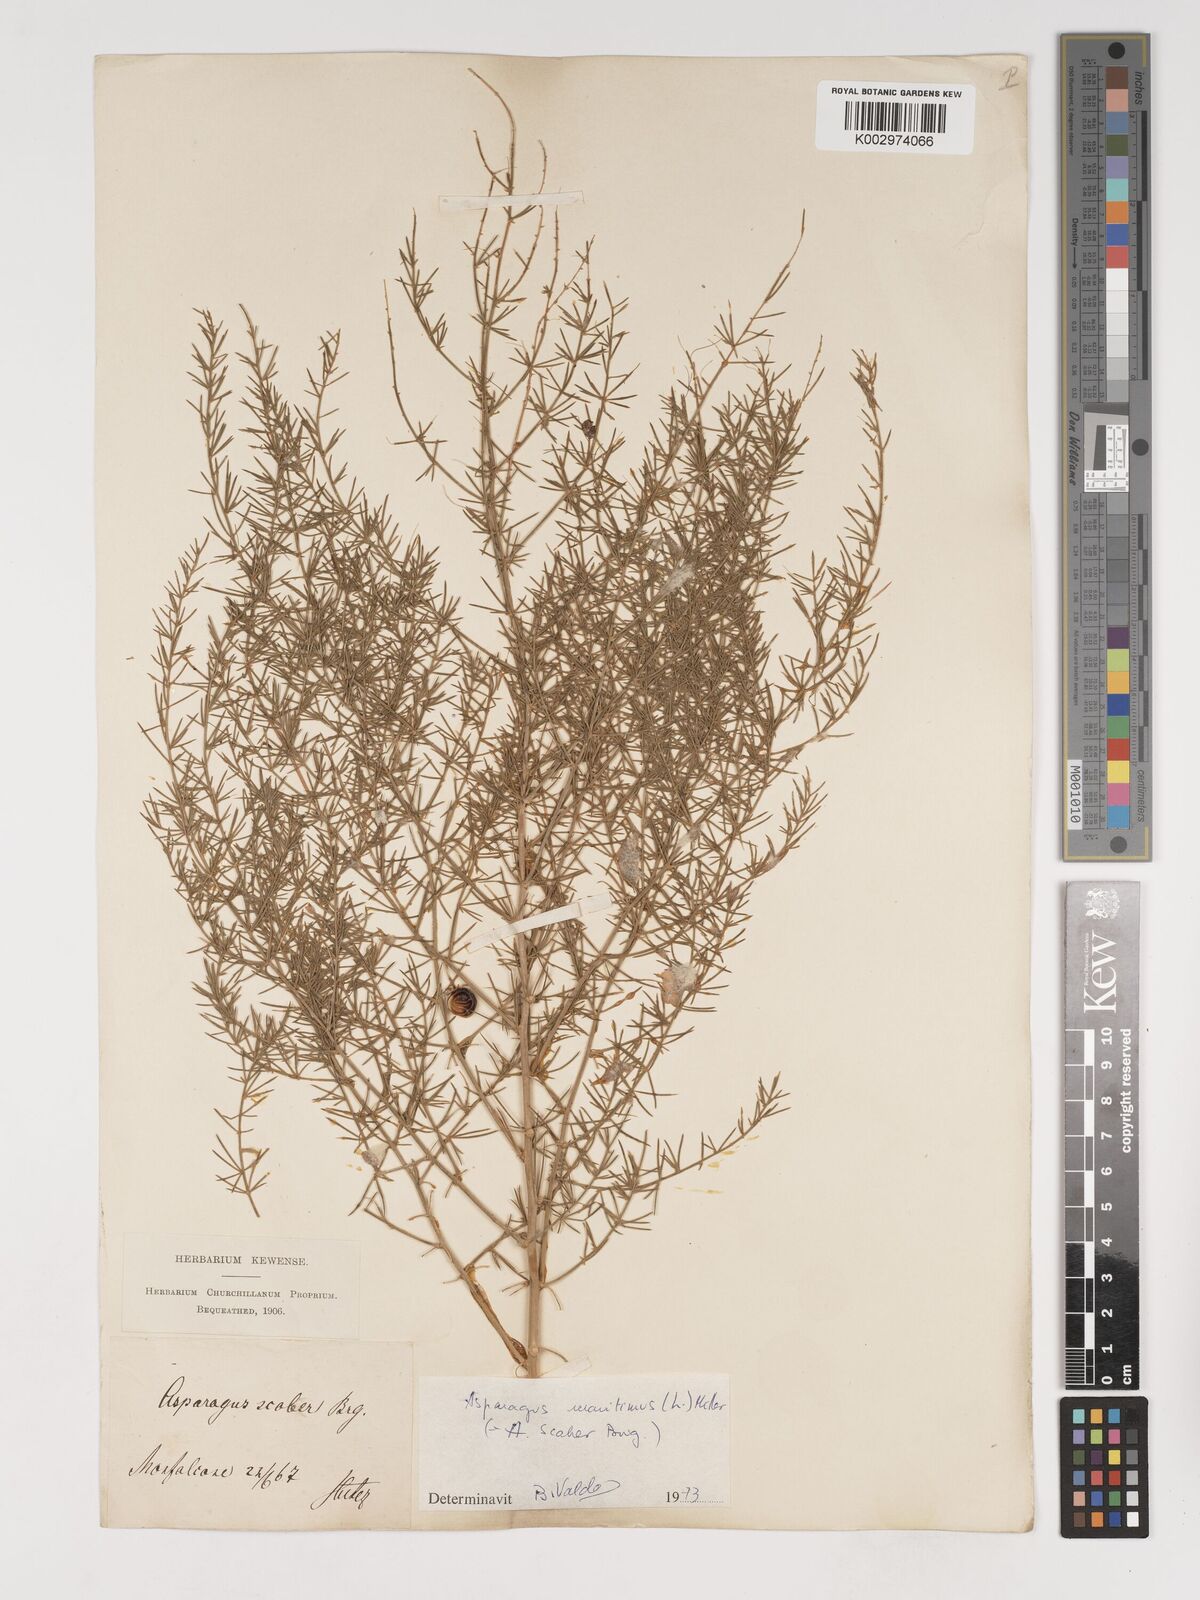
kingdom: Plantae
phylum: Tracheophyta
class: Liliopsida
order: Asparagales
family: Asparagaceae
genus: Asparagus
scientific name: Asparagus officinalis
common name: Garden asparagus
